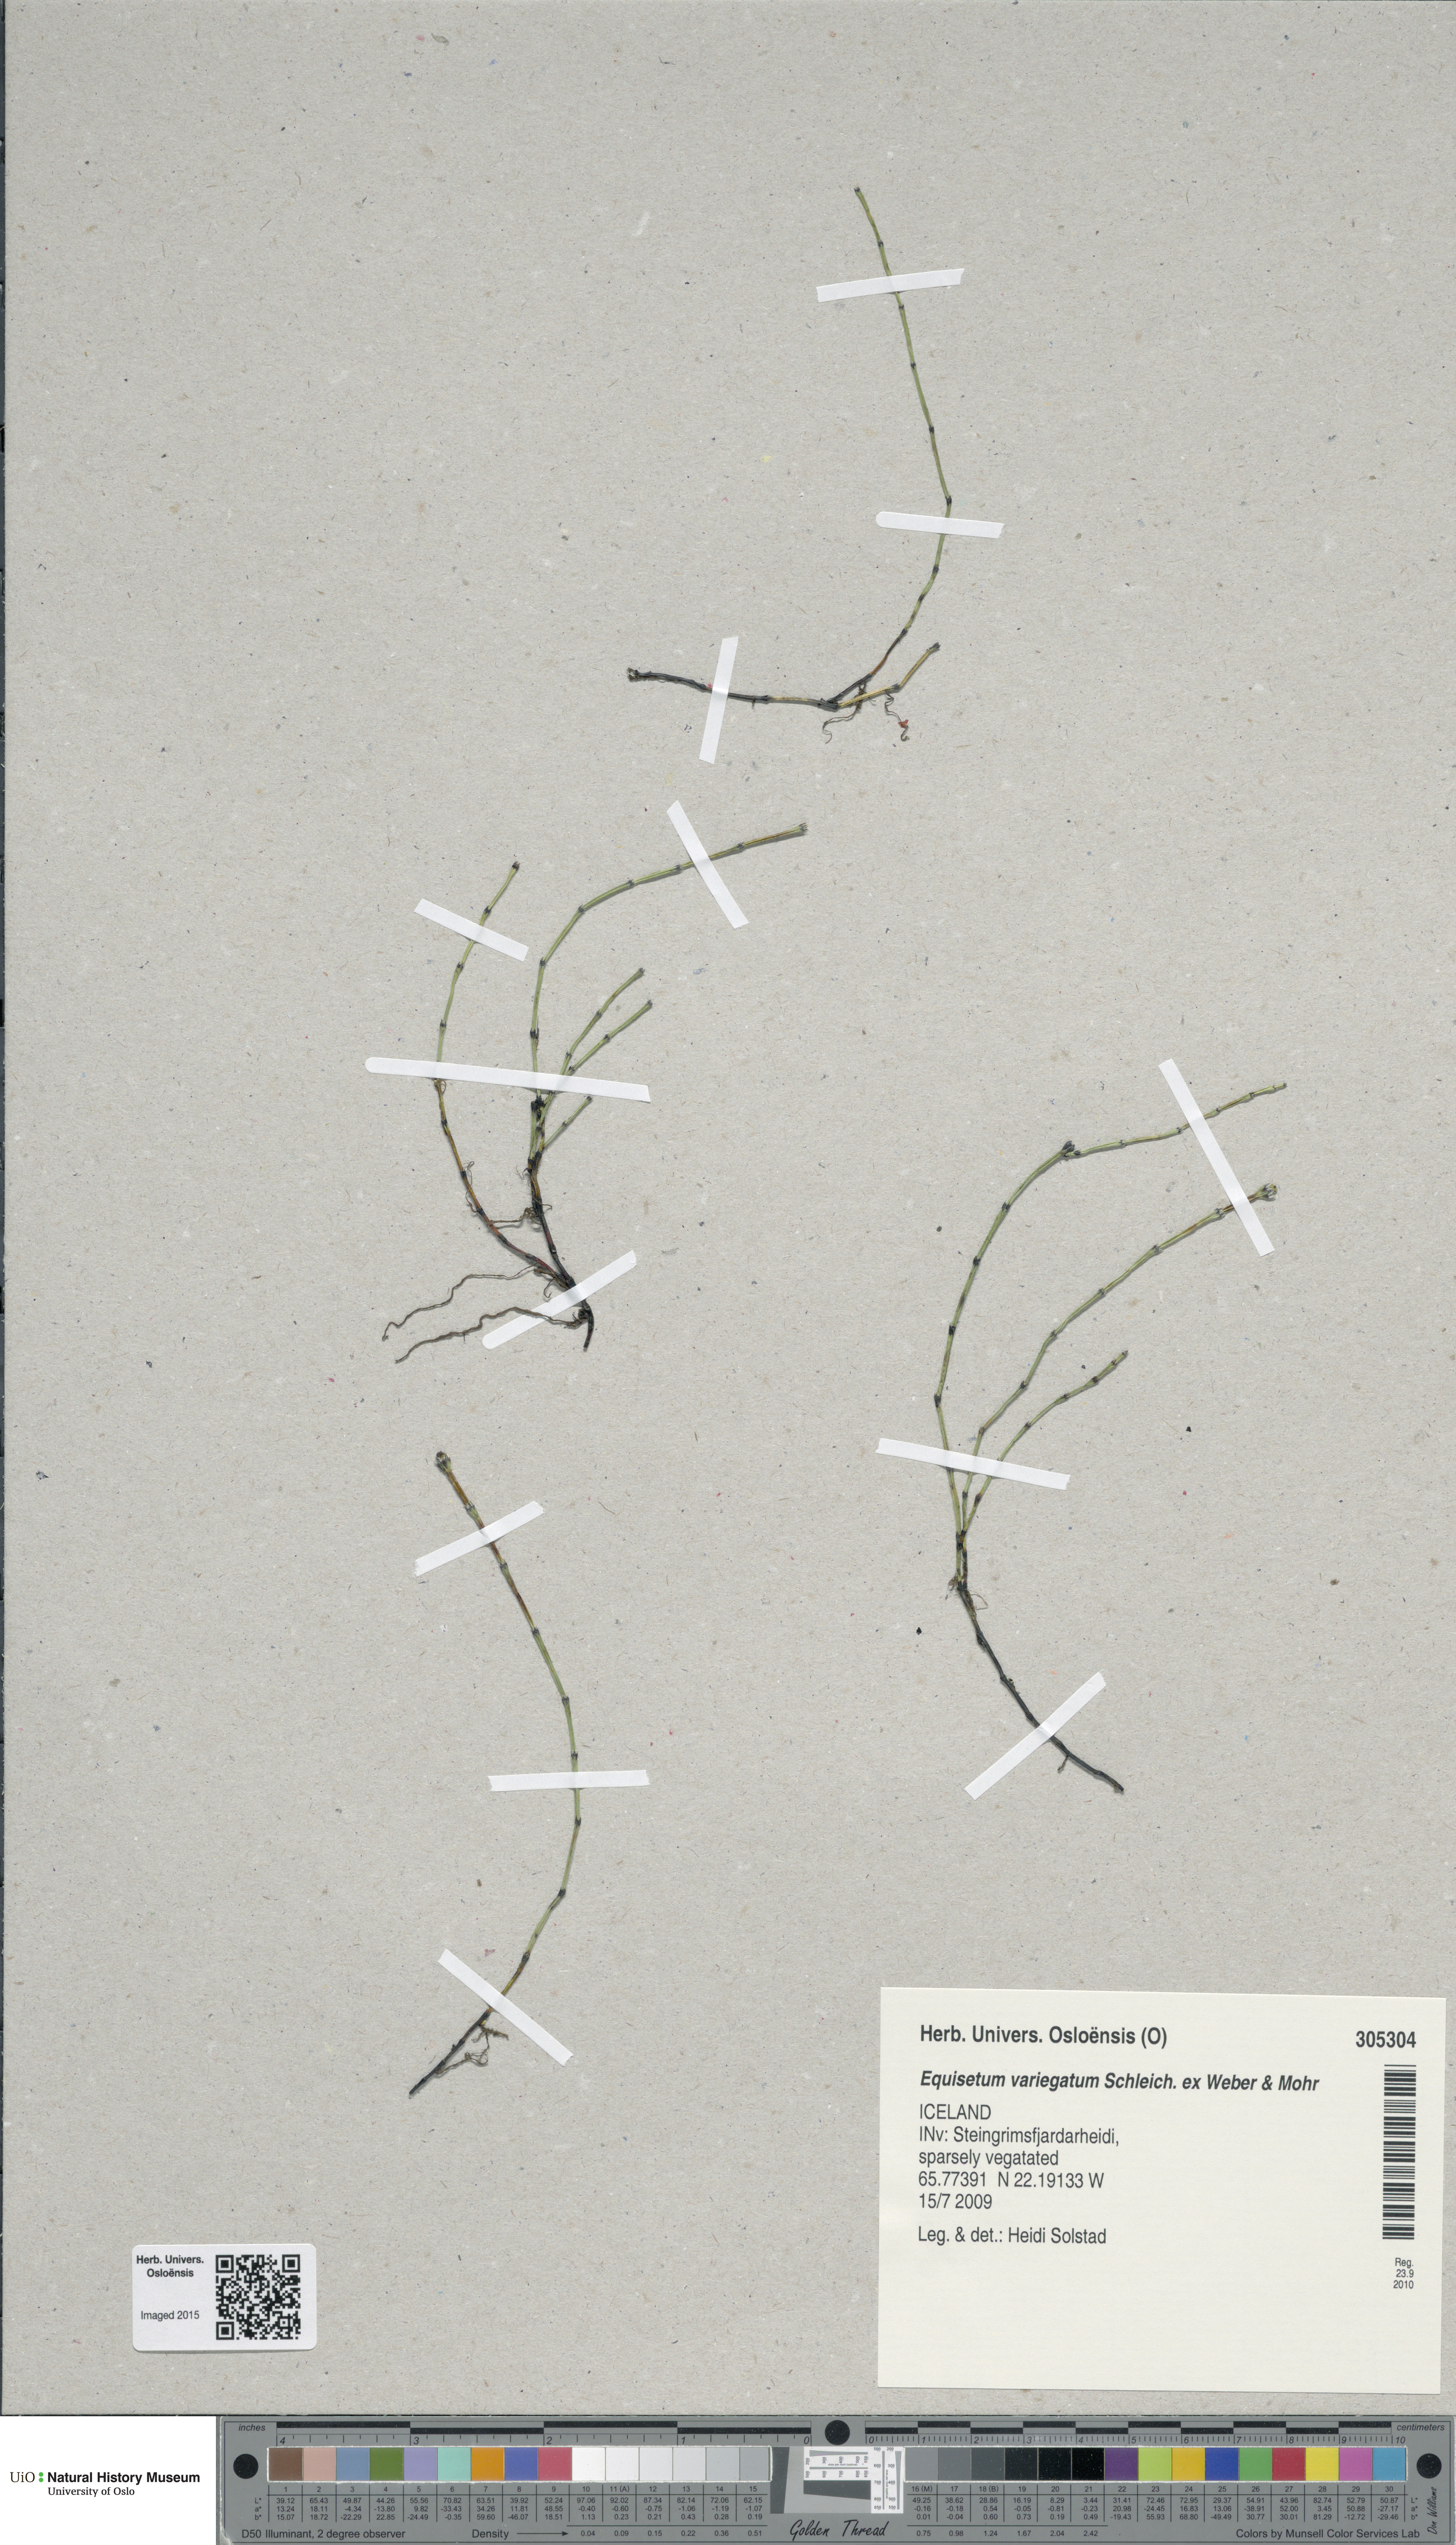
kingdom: Plantae
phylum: Tracheophyta
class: Polypodiopsida
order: Equisetales
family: Equisetaceae
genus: Equisetum
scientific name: Equisetum variegatum
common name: Variegated horsetail
